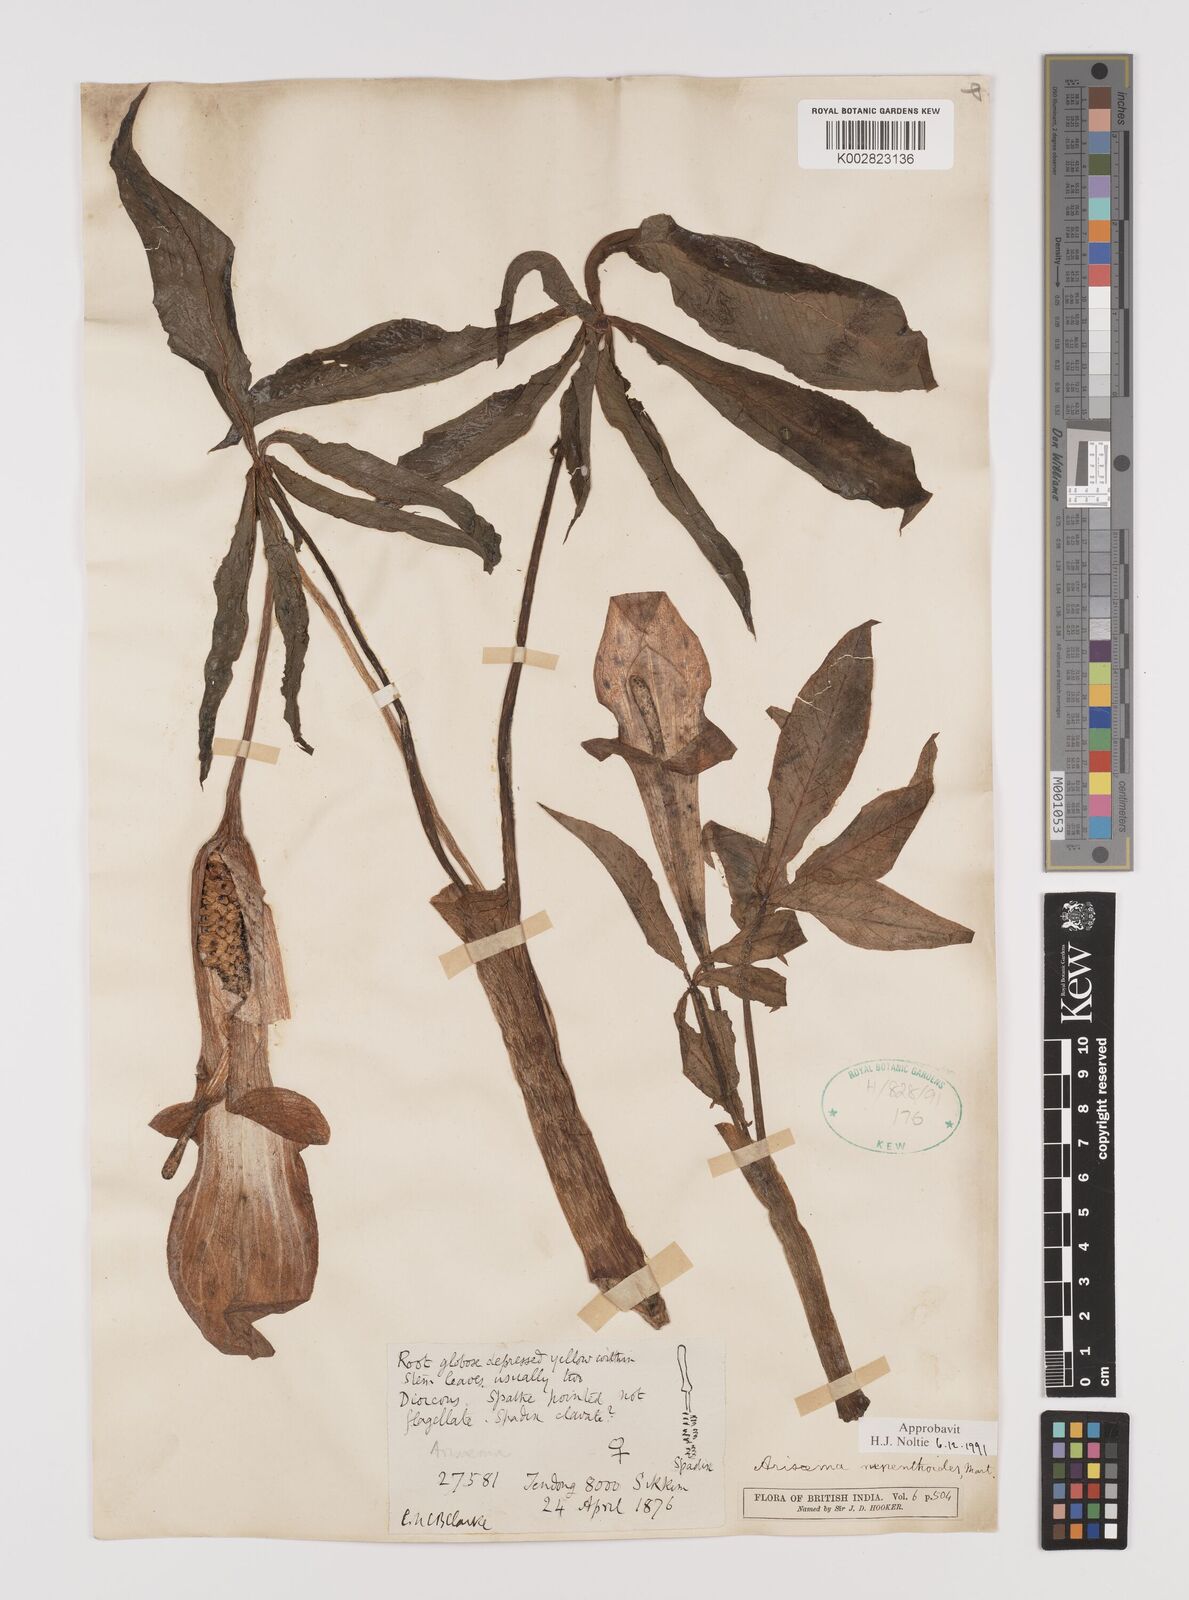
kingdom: Plantae
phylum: Tracheophyta
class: Liliopsida
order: Alismatales
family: Araceae
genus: Arisaema
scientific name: Arisaema nepenthoides
